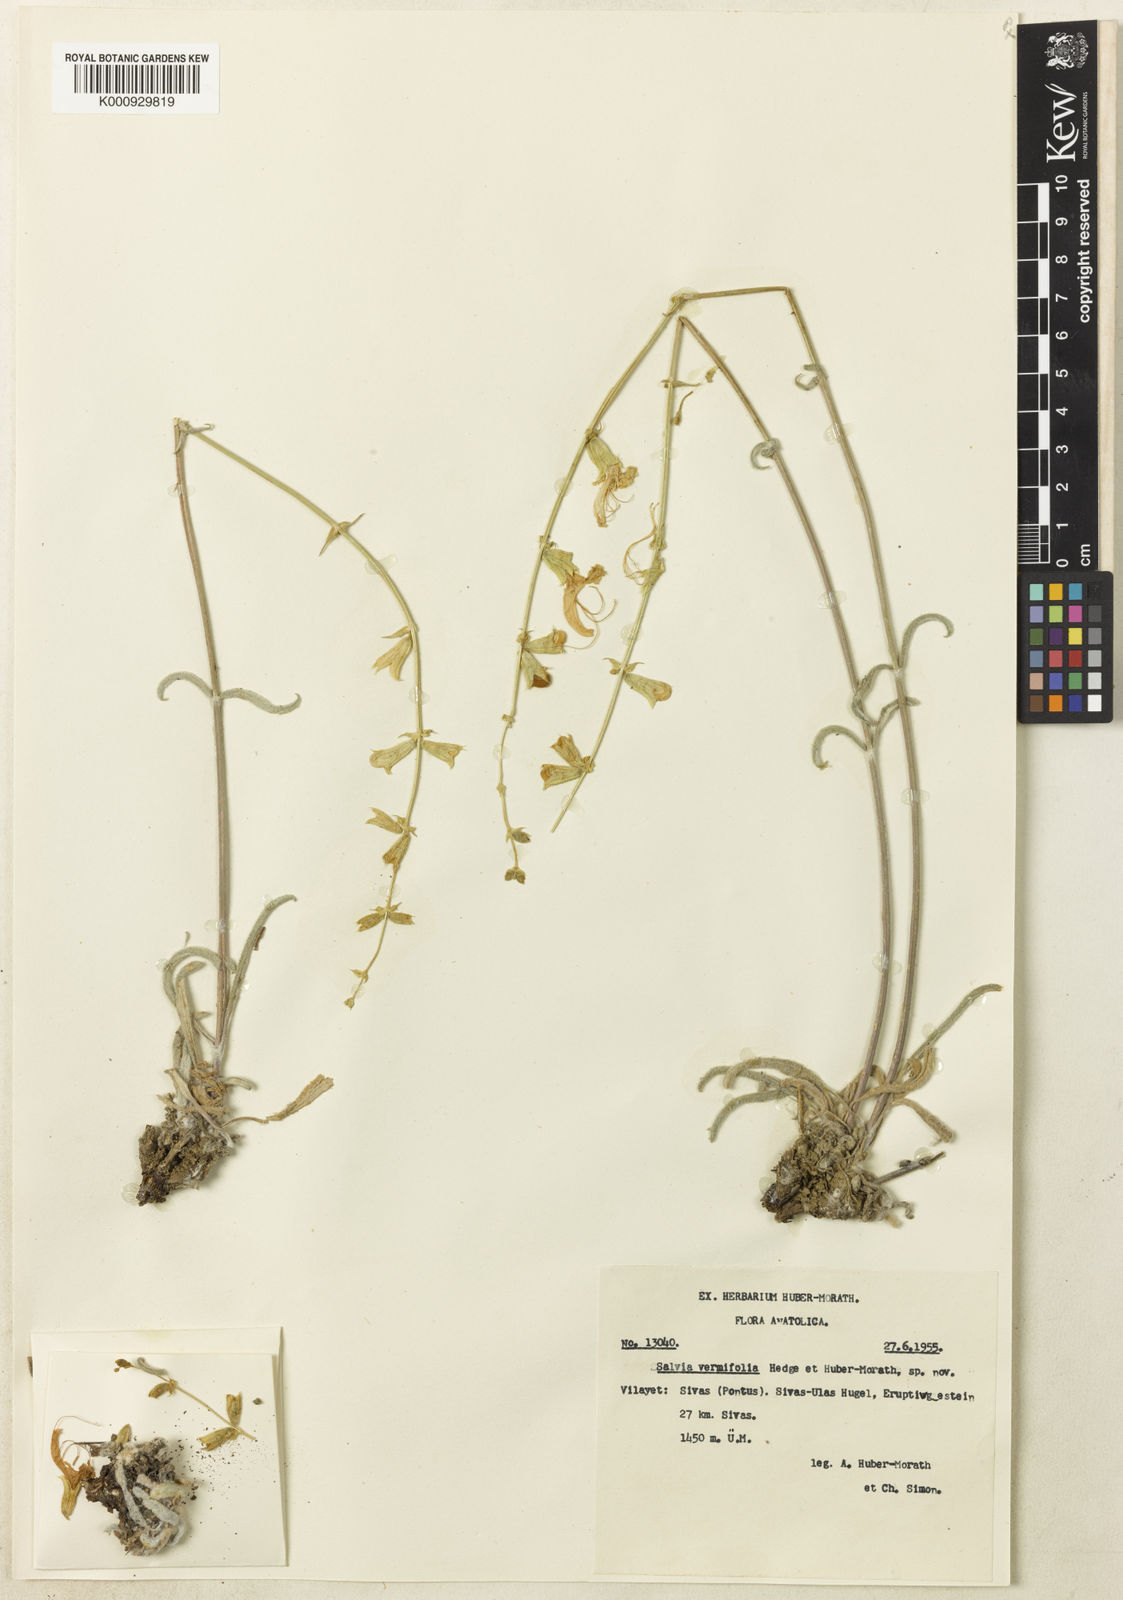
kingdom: Plantae
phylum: Tracheophyta
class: Magnoliopsida
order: Lamiales
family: Lamiaceae
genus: Salvia
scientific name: Salvia vermifolia
